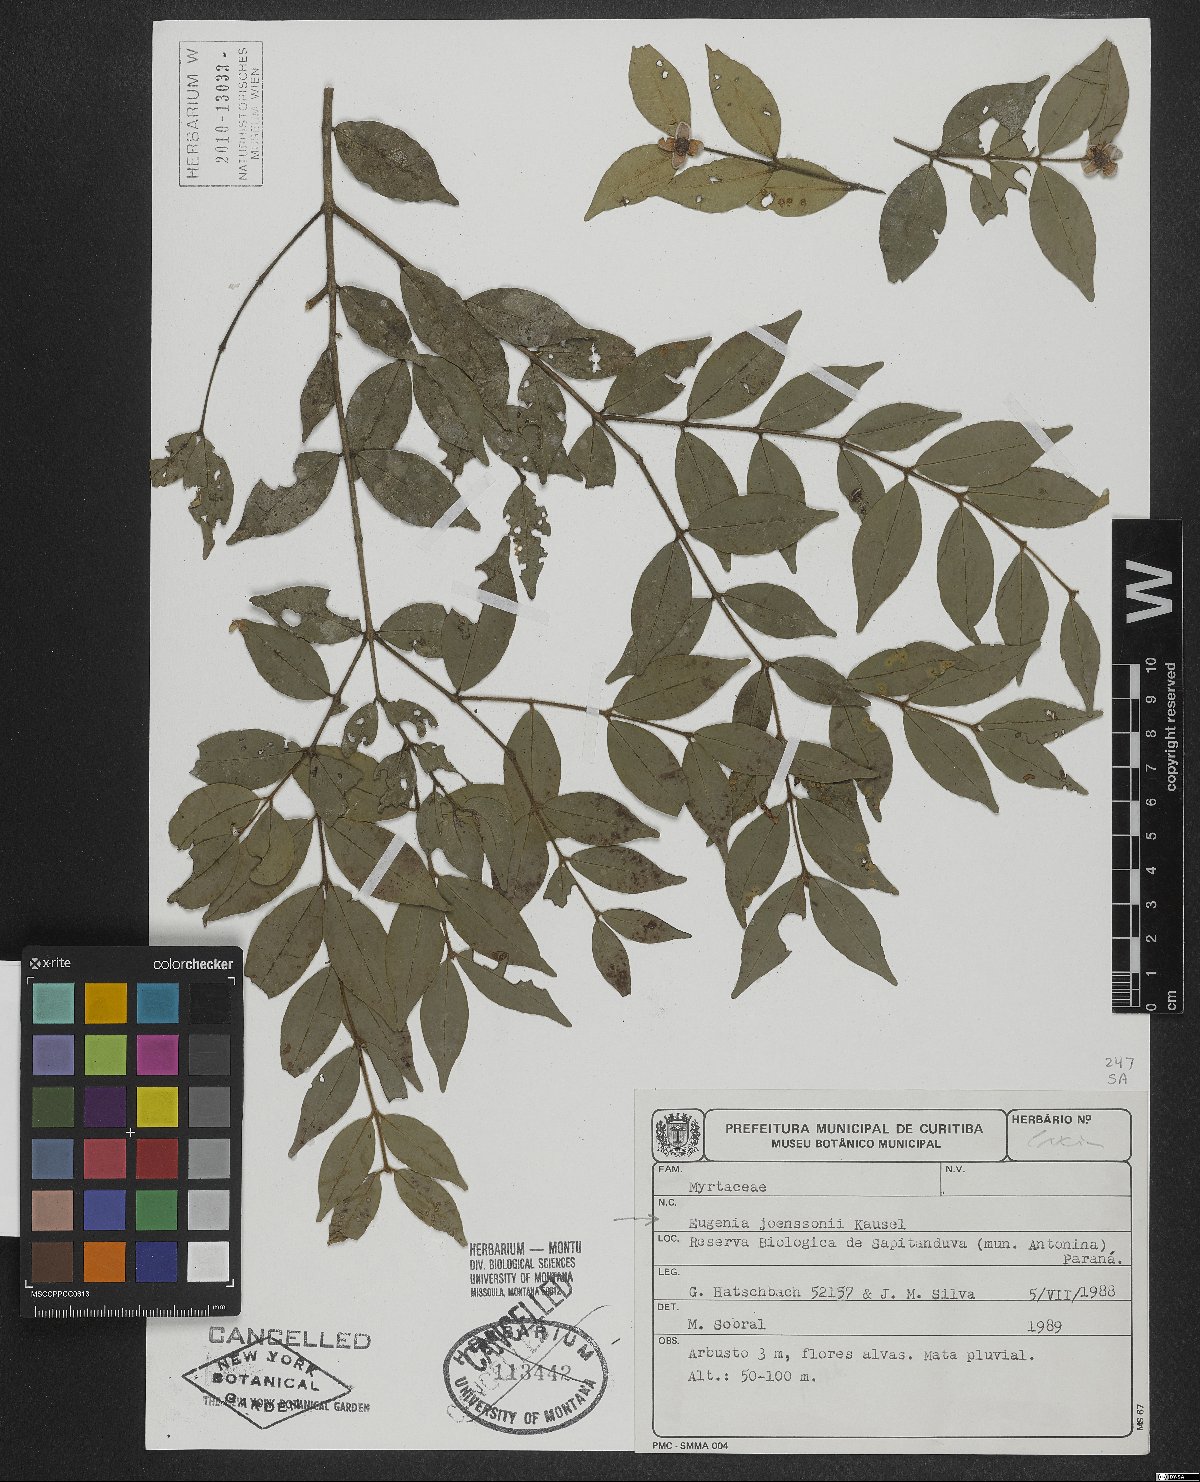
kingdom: Plantae
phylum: Tracheophyta
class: Magnoliopsida
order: Myrtales
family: Myrtaceae
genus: Eugenia
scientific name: Eugenia joenssonii
